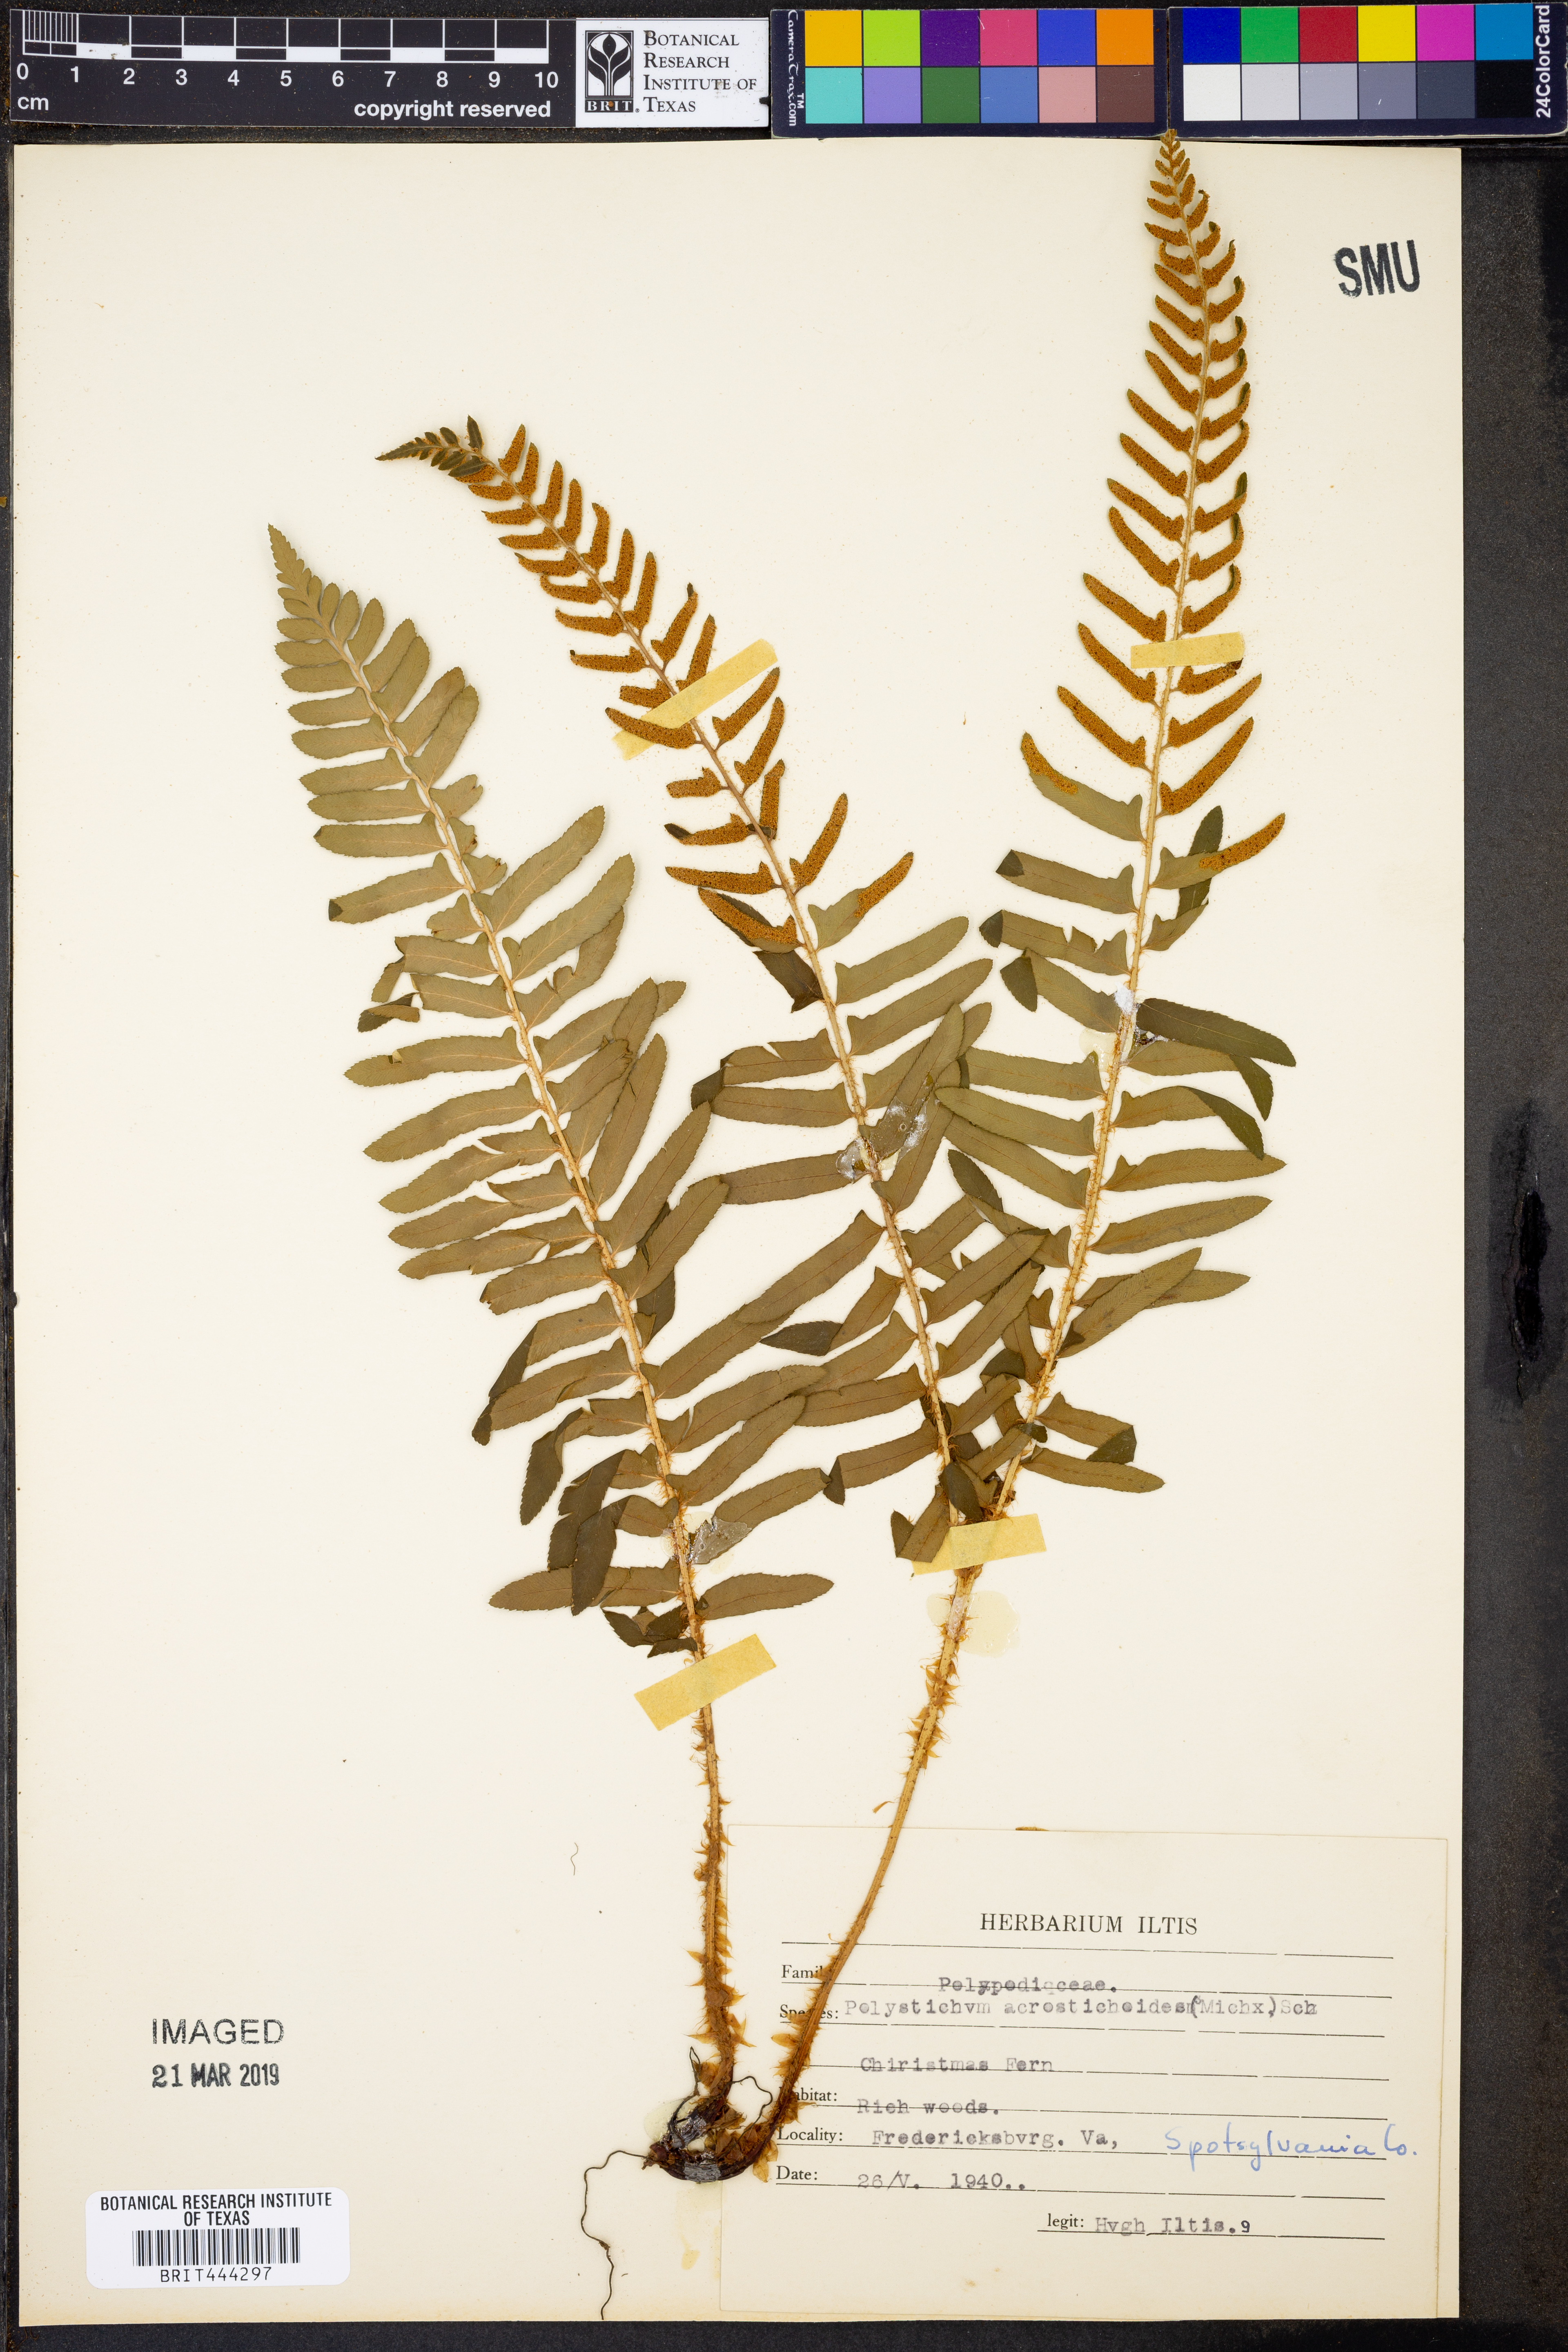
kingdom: Plantae
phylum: Tracheophyta
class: Polypodiopsida
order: Polypodiales
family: Dryopteridaceae
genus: Polystichum
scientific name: Polystichum acrostichoides
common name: Christmas fern
